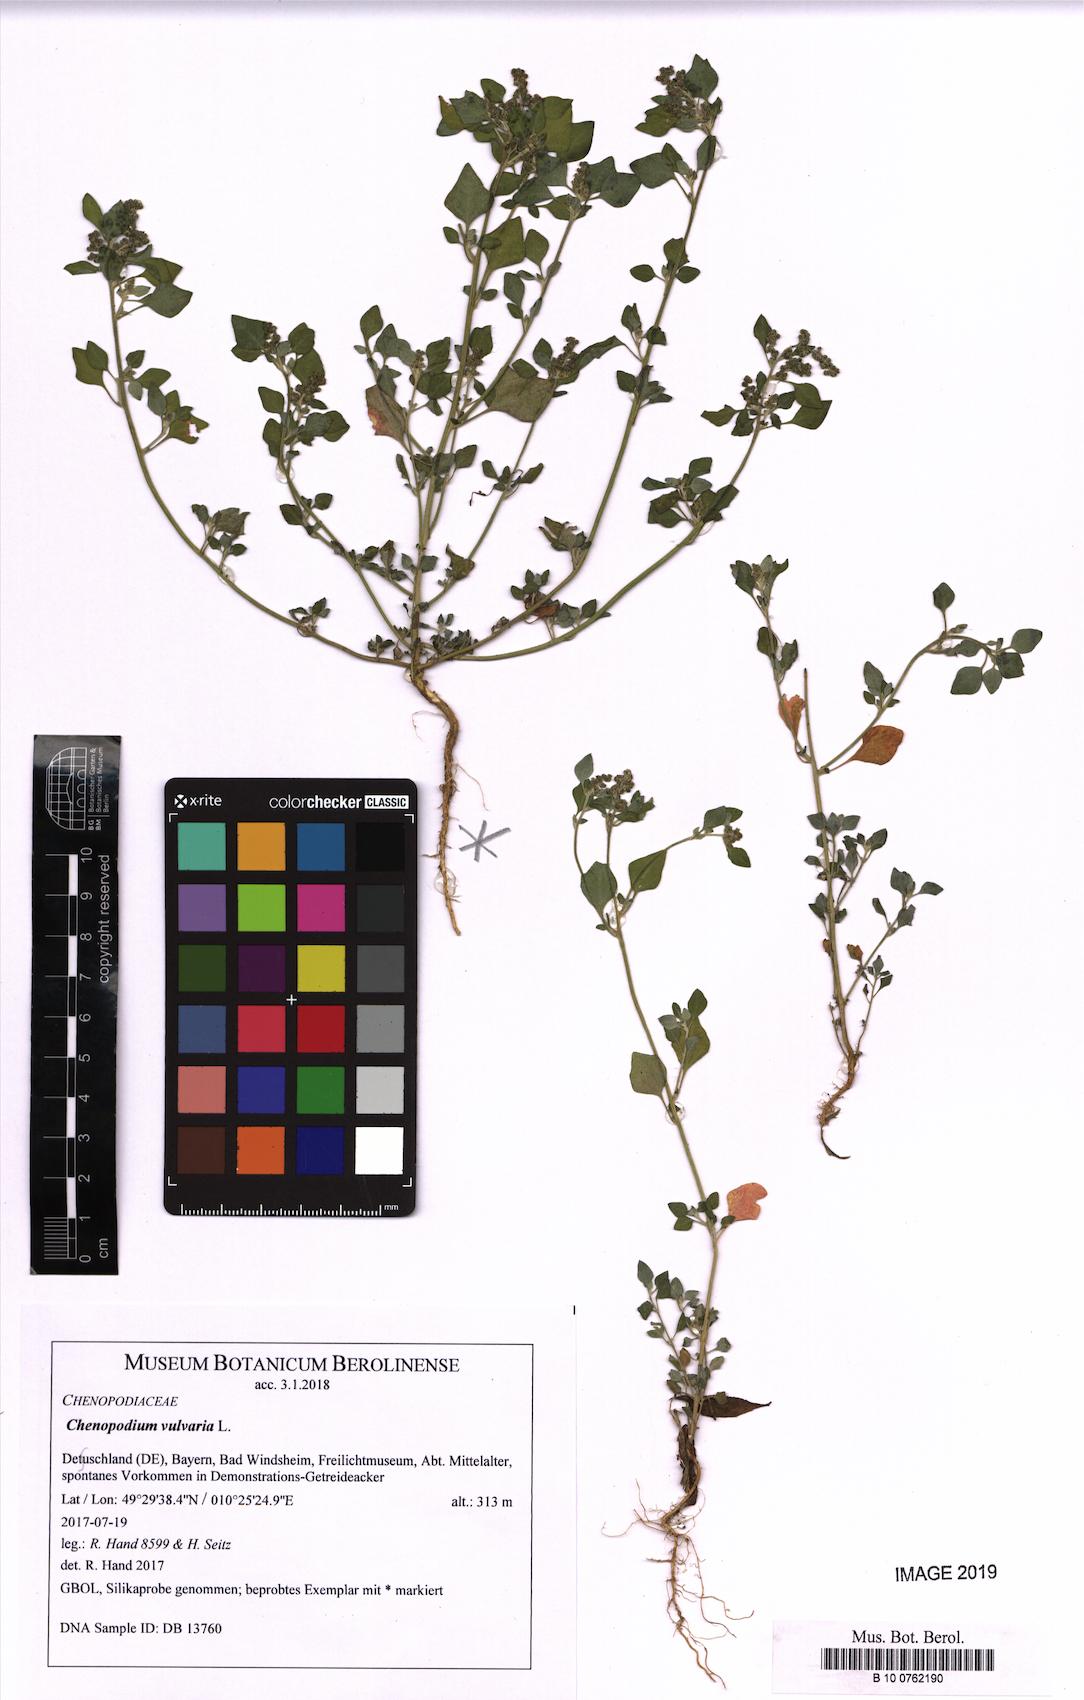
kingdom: Plantae
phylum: Tracheophyta
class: Magnoliopsida
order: Caryophyllales
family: Amaranthaceae
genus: Chenopodium
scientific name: Chenopodium vulvaria
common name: Stinking goosefoot
